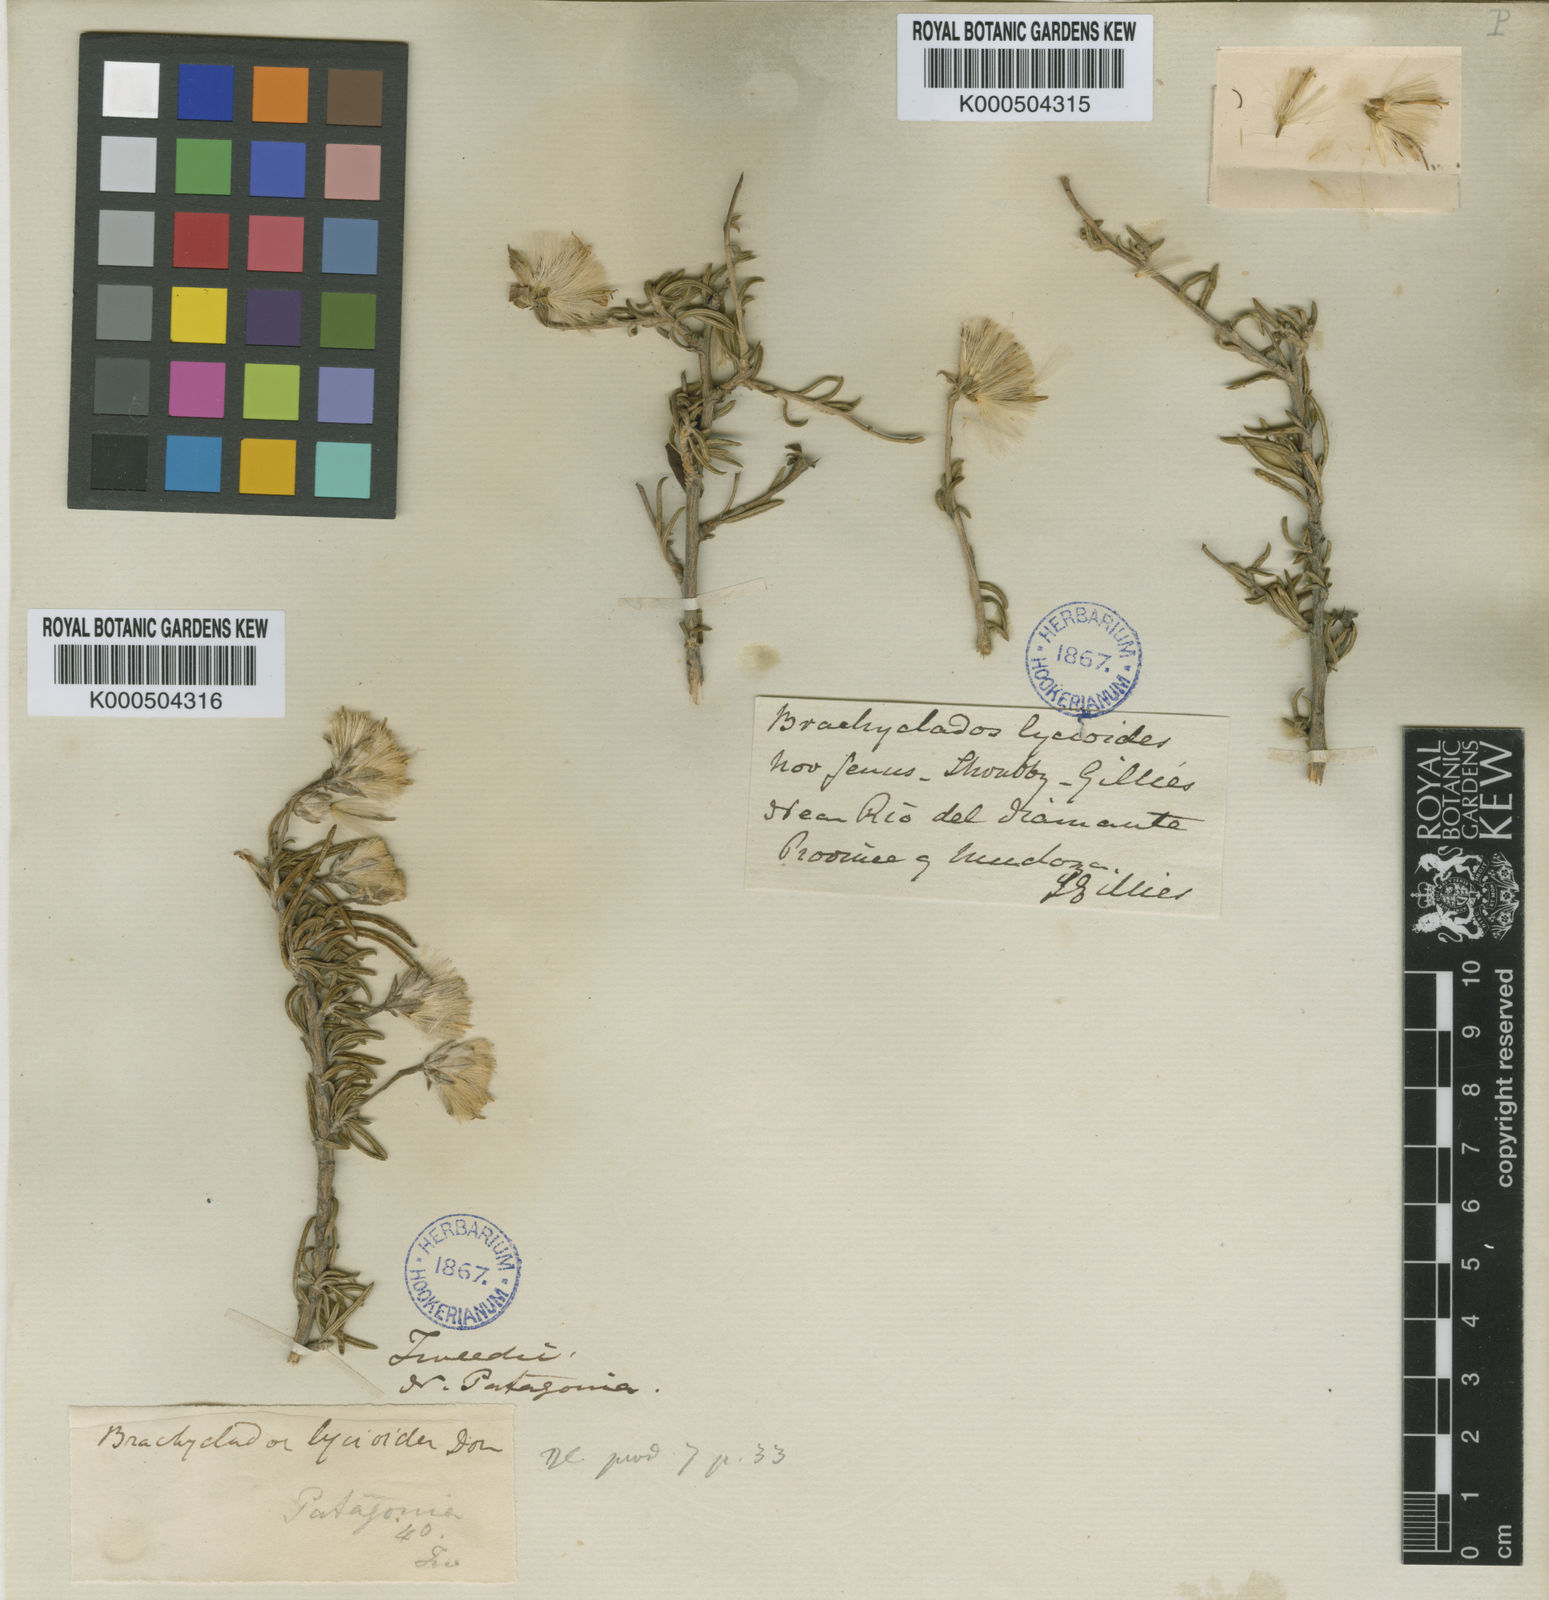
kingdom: Plantae
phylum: Tracheophyta
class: Magnoliopsida
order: Asterales
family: Asteraceae
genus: Brachyclados
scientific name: Brachyclados lycioides
